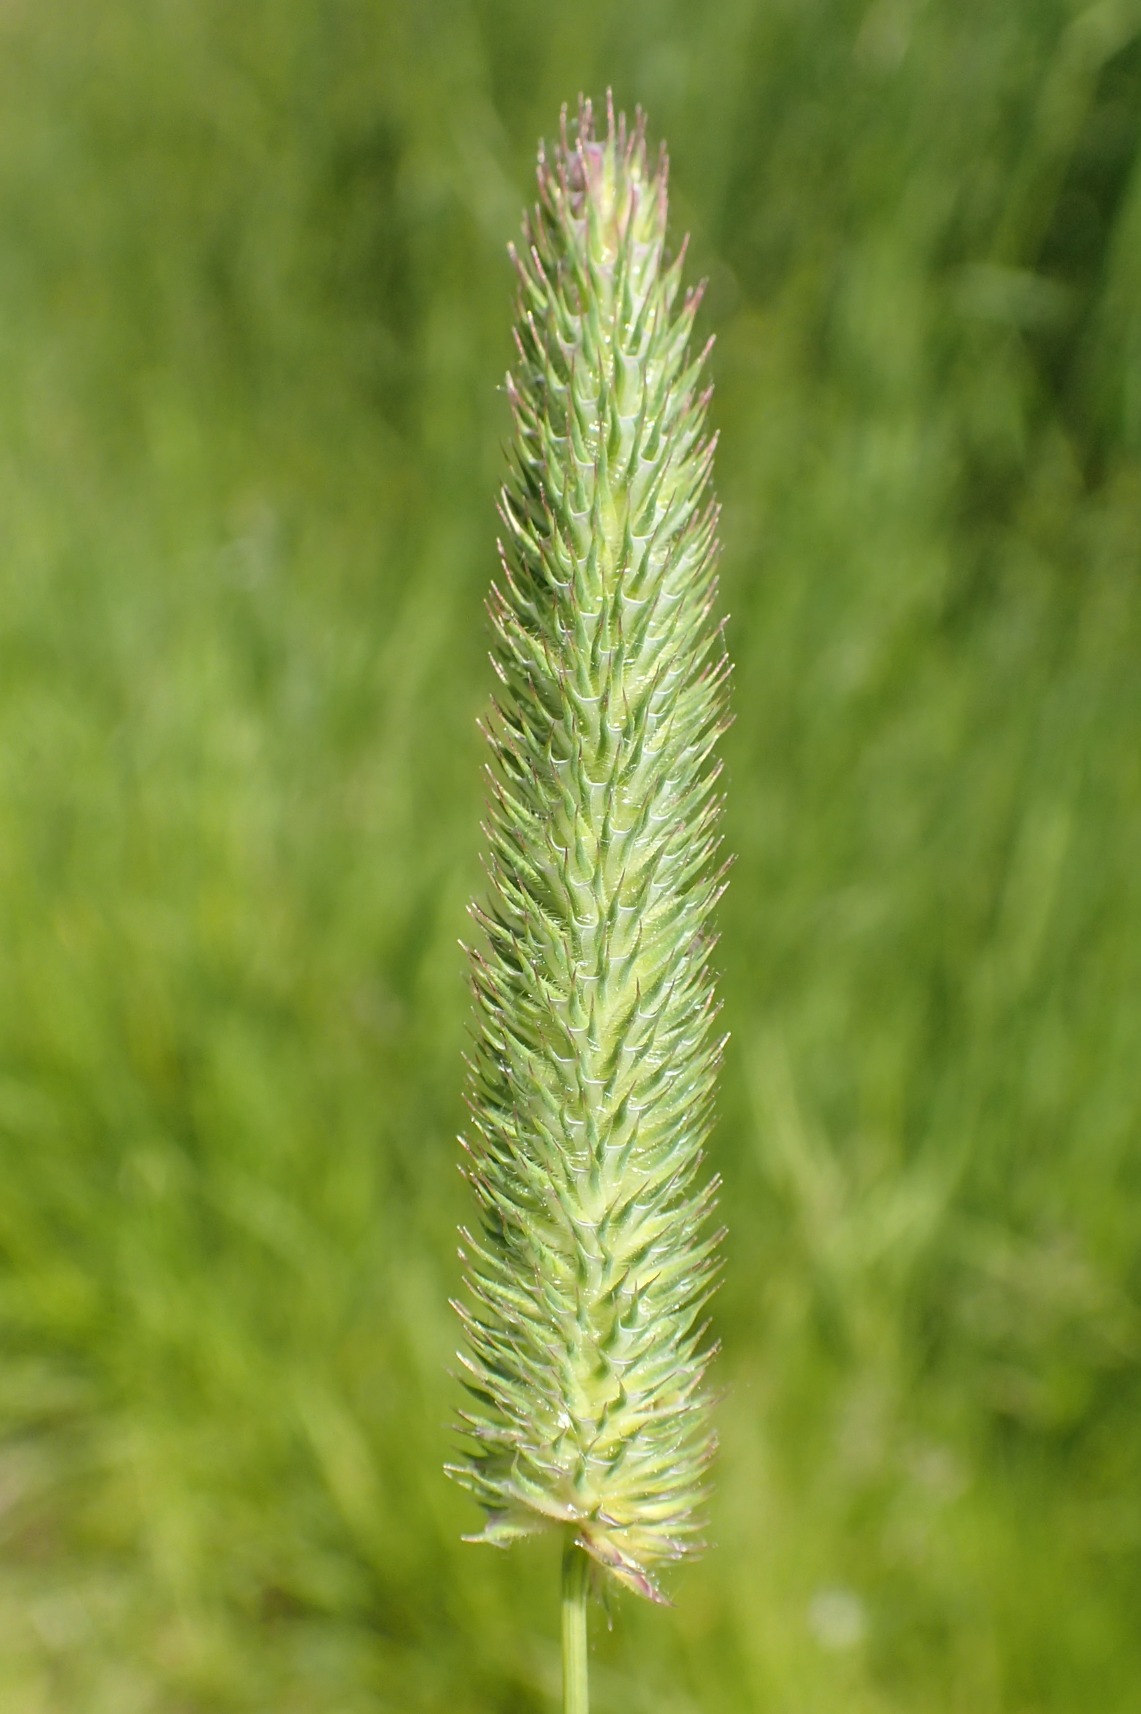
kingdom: Plantae
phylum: Tracheophyta
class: Liliopsida
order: Poales
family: Poaceae
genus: Phleum
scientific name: Phleum pratense
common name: Eng-rottehale
